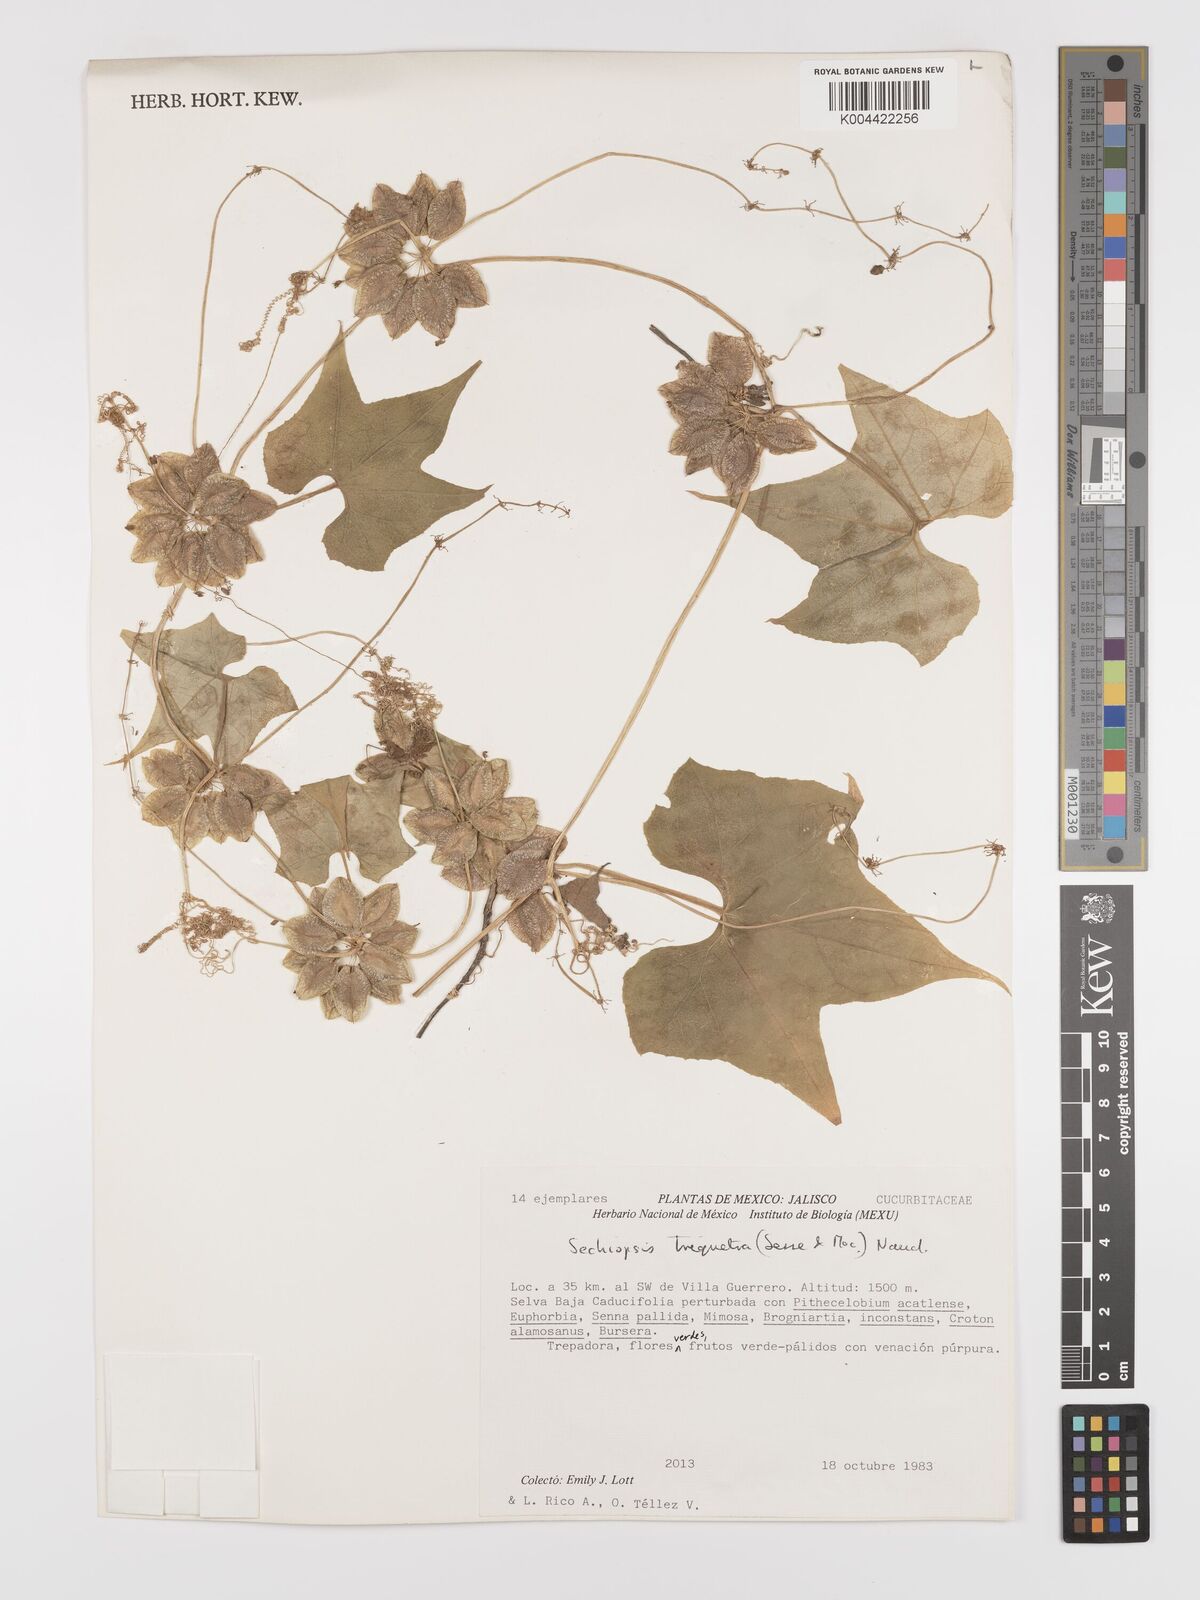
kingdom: Plantae
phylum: Tracheophyta
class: Magnoliopsida
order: Cucurbitales
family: Cucurbitaceae
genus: Sechiopsis
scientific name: Sechiopsis triqueter
